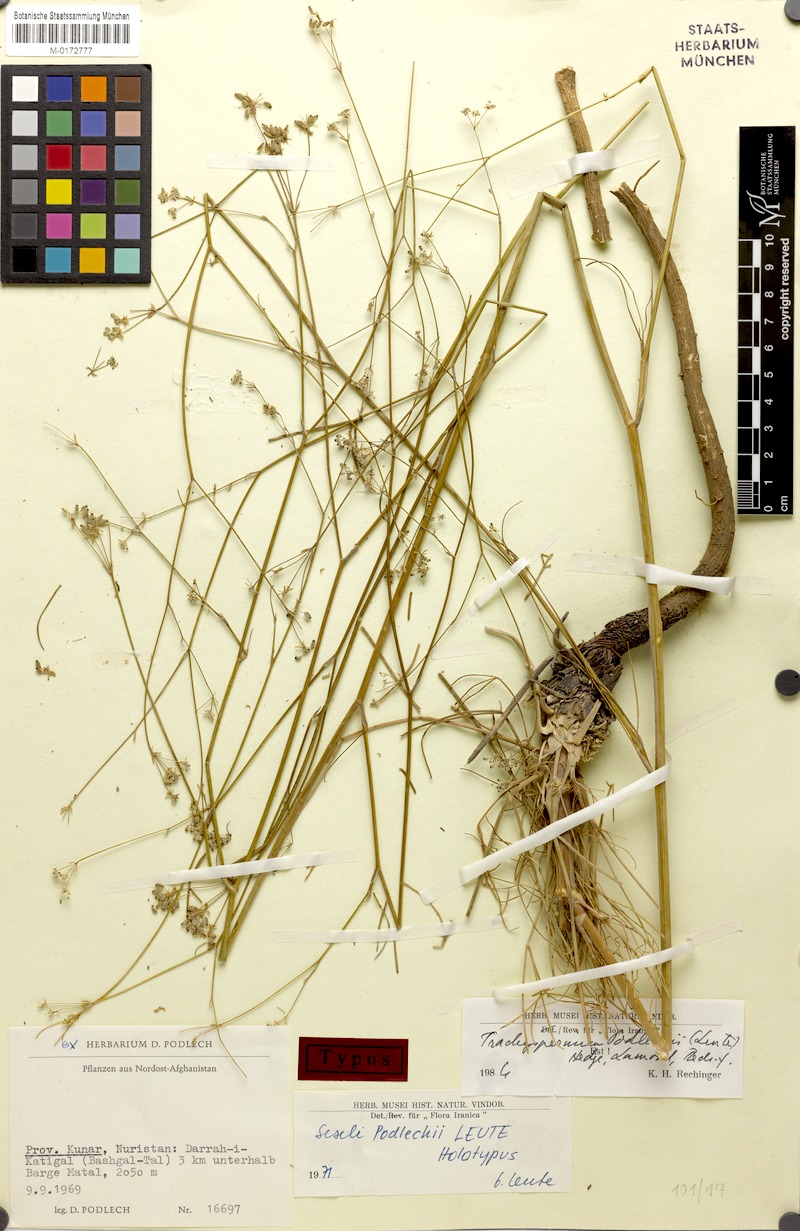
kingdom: Plantae
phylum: Tracheophyta
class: Magnoliopsida
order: Apiales
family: Apiaceae
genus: Trachyspermum
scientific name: Trachyspermum podlechii
